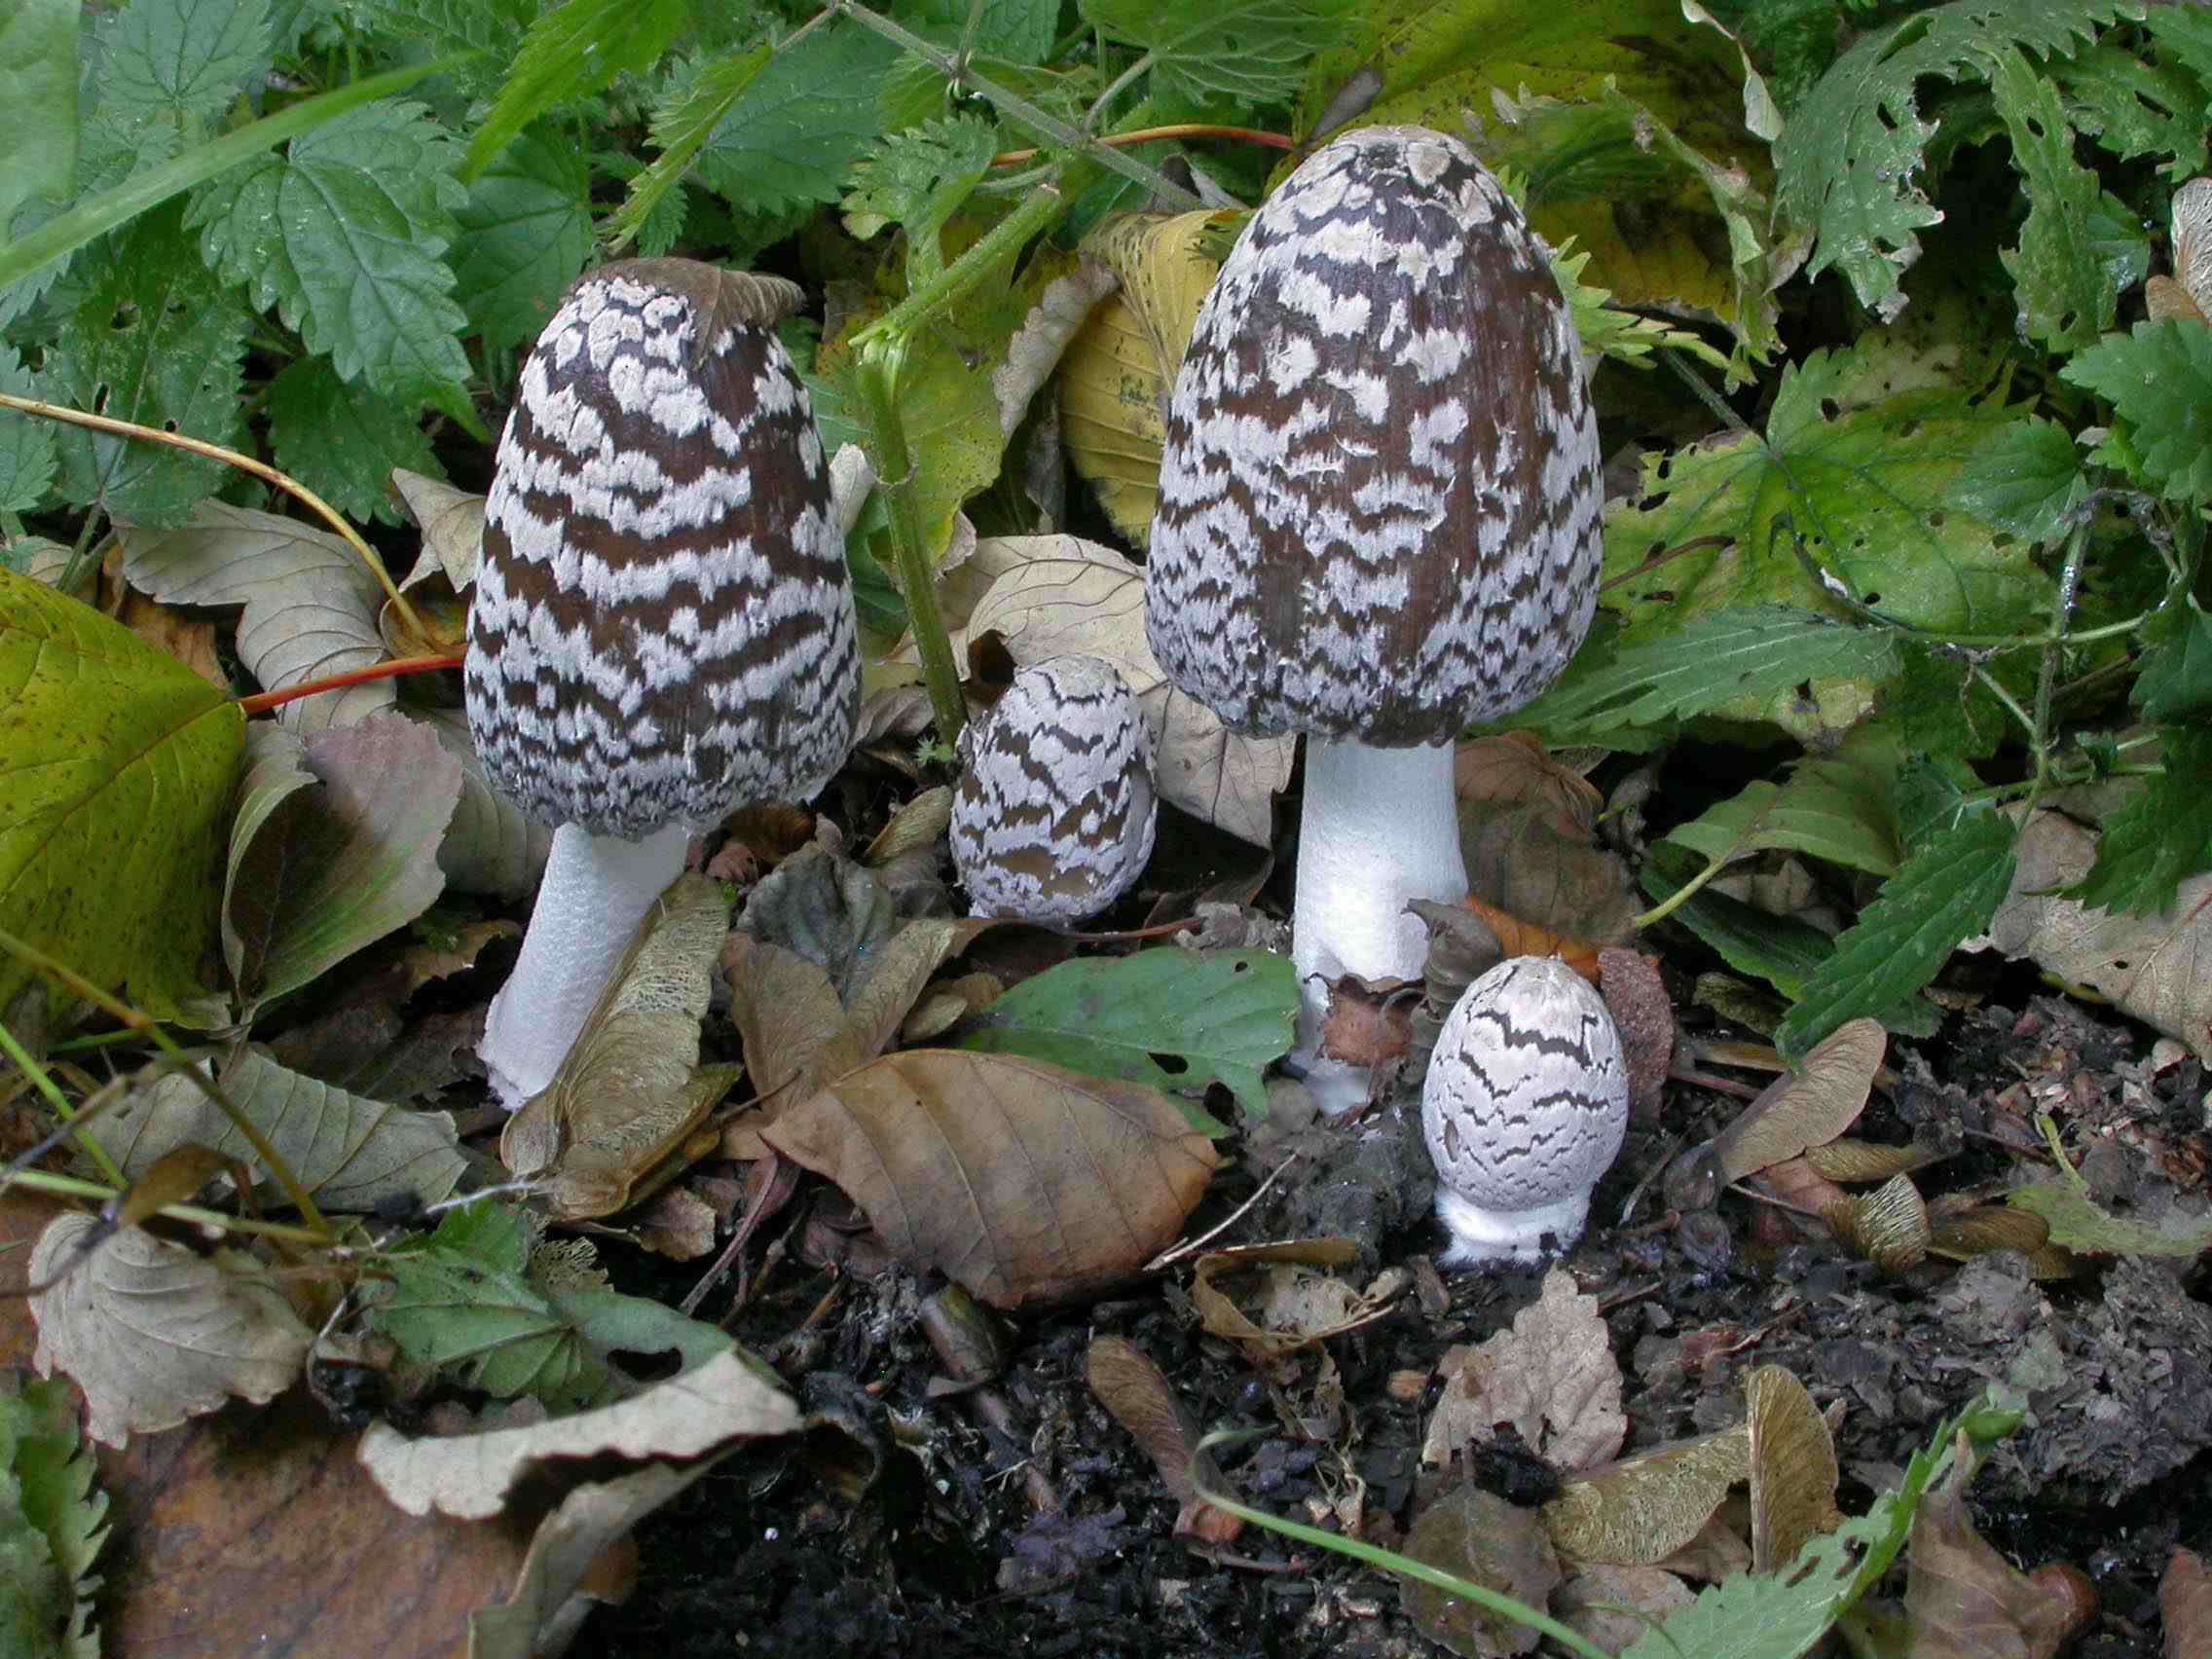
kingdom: Fungi
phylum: Basidiomycota
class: Agaricomycetes
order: Agaricales
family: Psathyrellaceae
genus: Coprinopsis
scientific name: Coprinopsis picacea
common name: skade-blækhat
